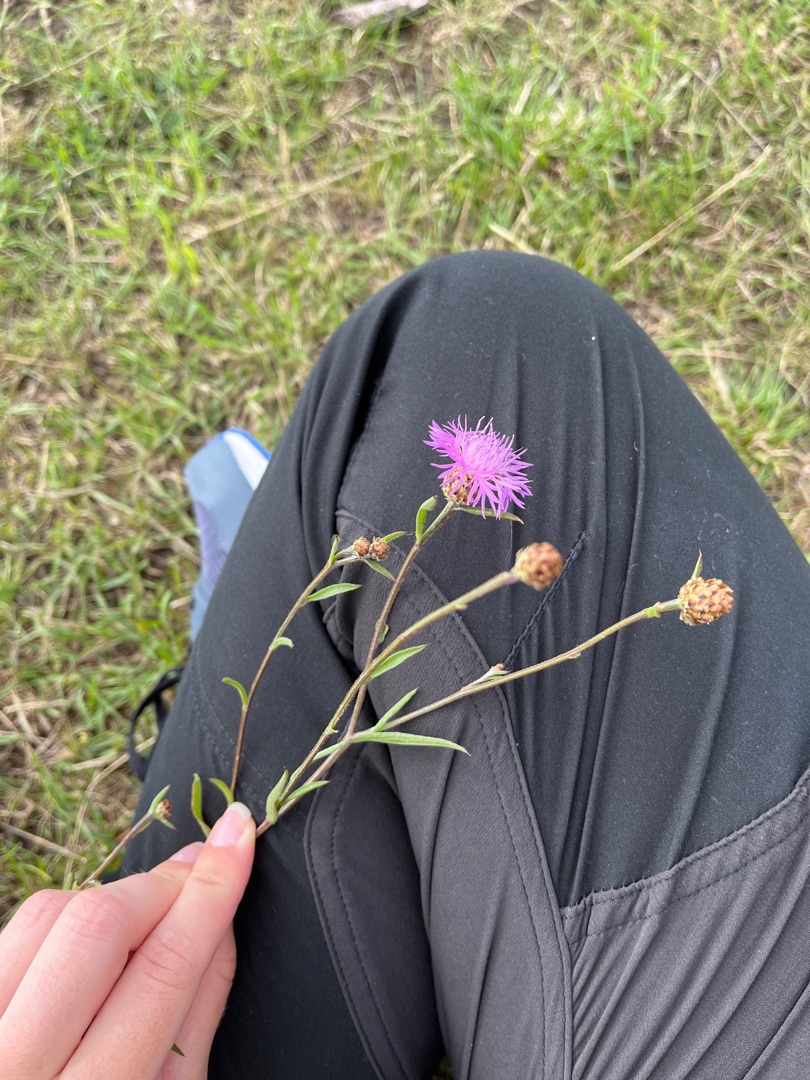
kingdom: Plantae
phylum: Tracheophyta
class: Magnoliopsida
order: Asterales
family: Asteraceae
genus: Centaurea
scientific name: Centaurea jacea
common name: Almindelig knopurt
